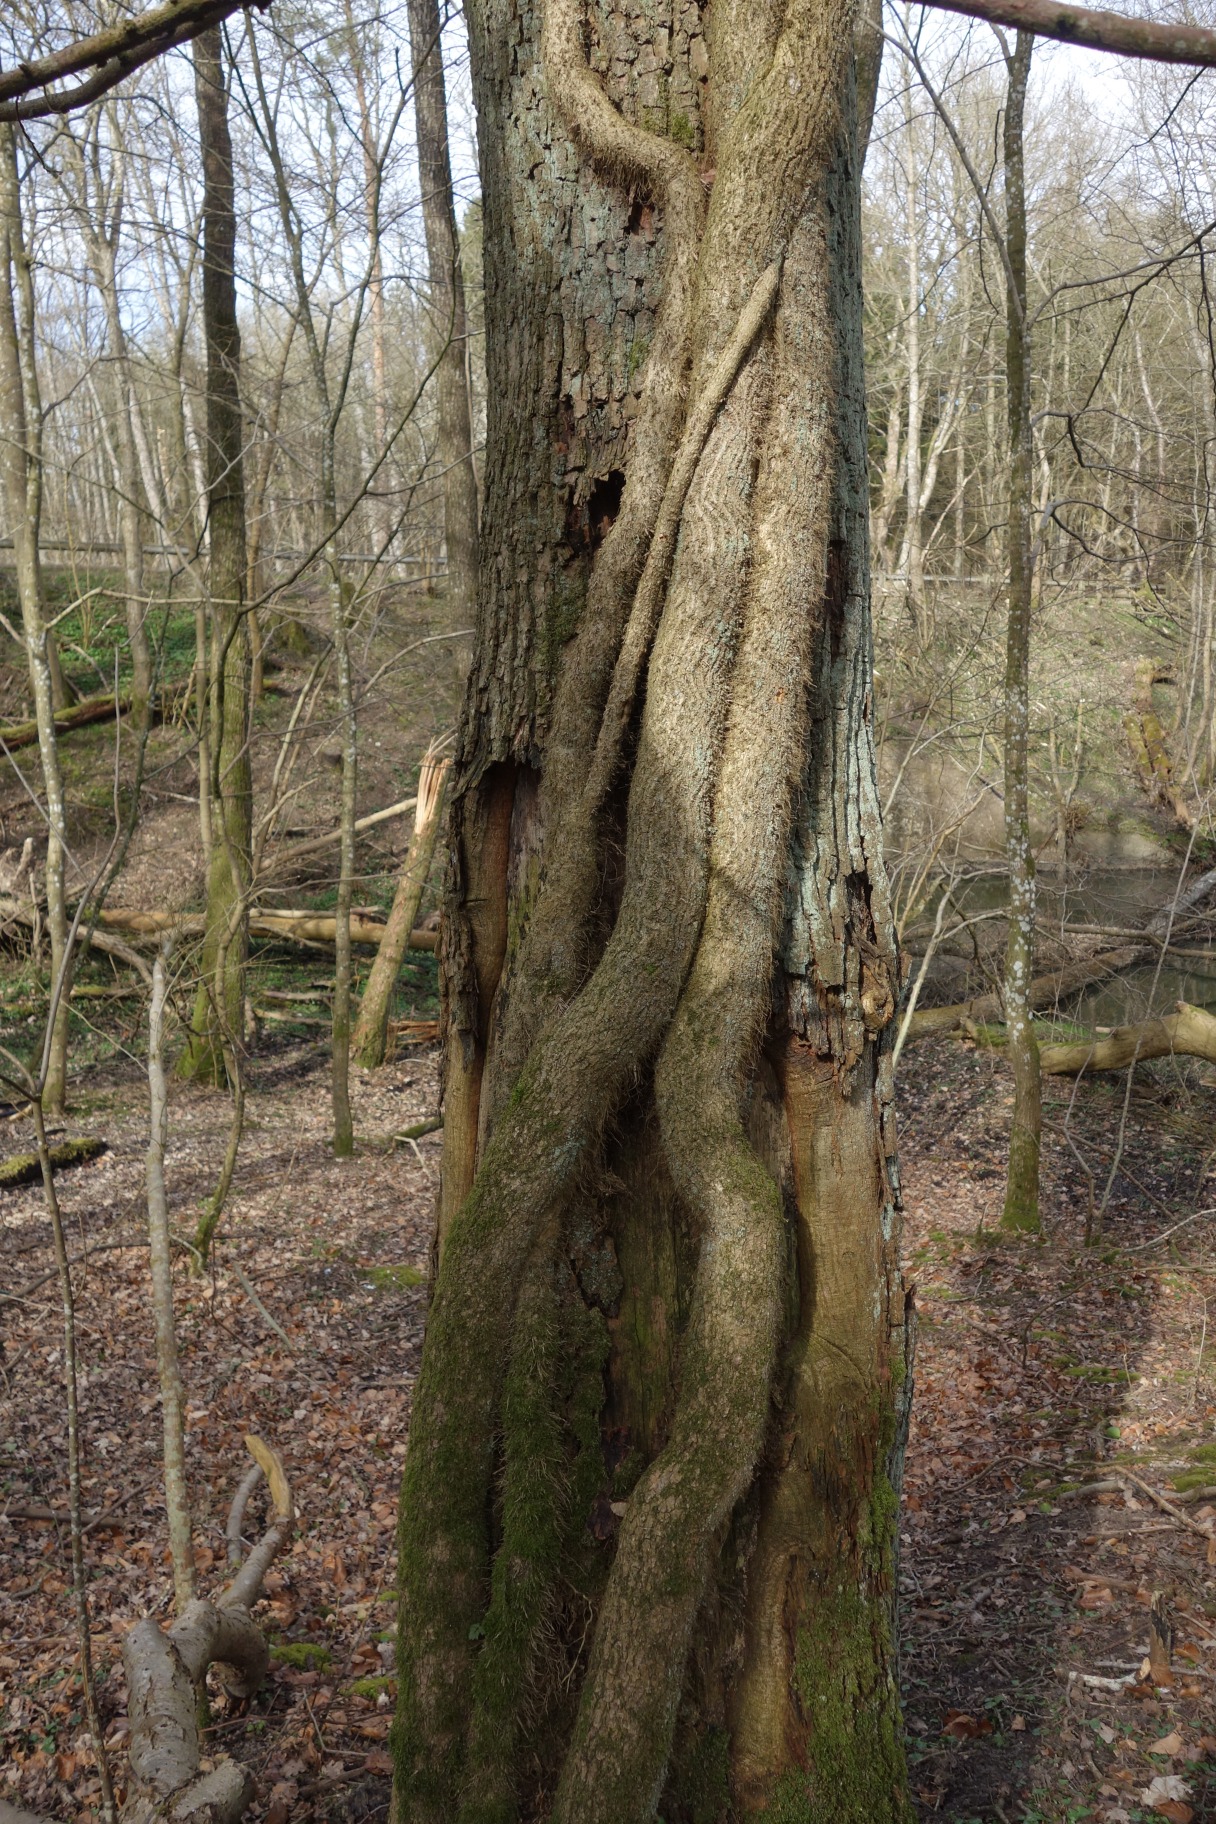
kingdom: Plantae
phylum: Tracheophyta
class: Magnoliopsida
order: Apiales
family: Araliaceae
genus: Hedera
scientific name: Hedera helix
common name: Vedbend
